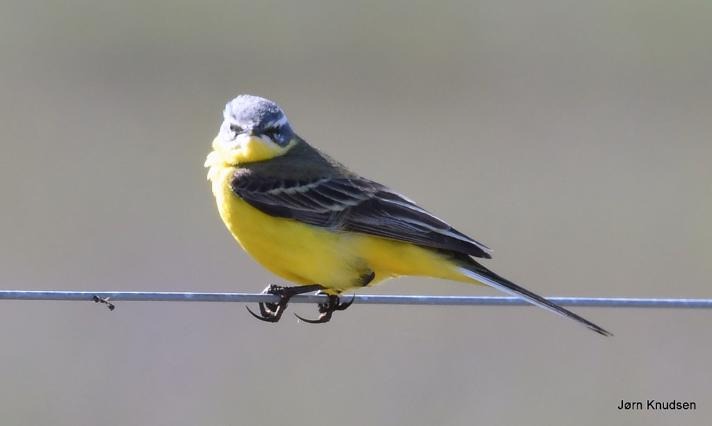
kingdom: Animalia
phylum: Chordata
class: Aves
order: Passeriformes
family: Motacillidae
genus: Motacilla
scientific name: Motacilla flava
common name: Gul vipstjert
